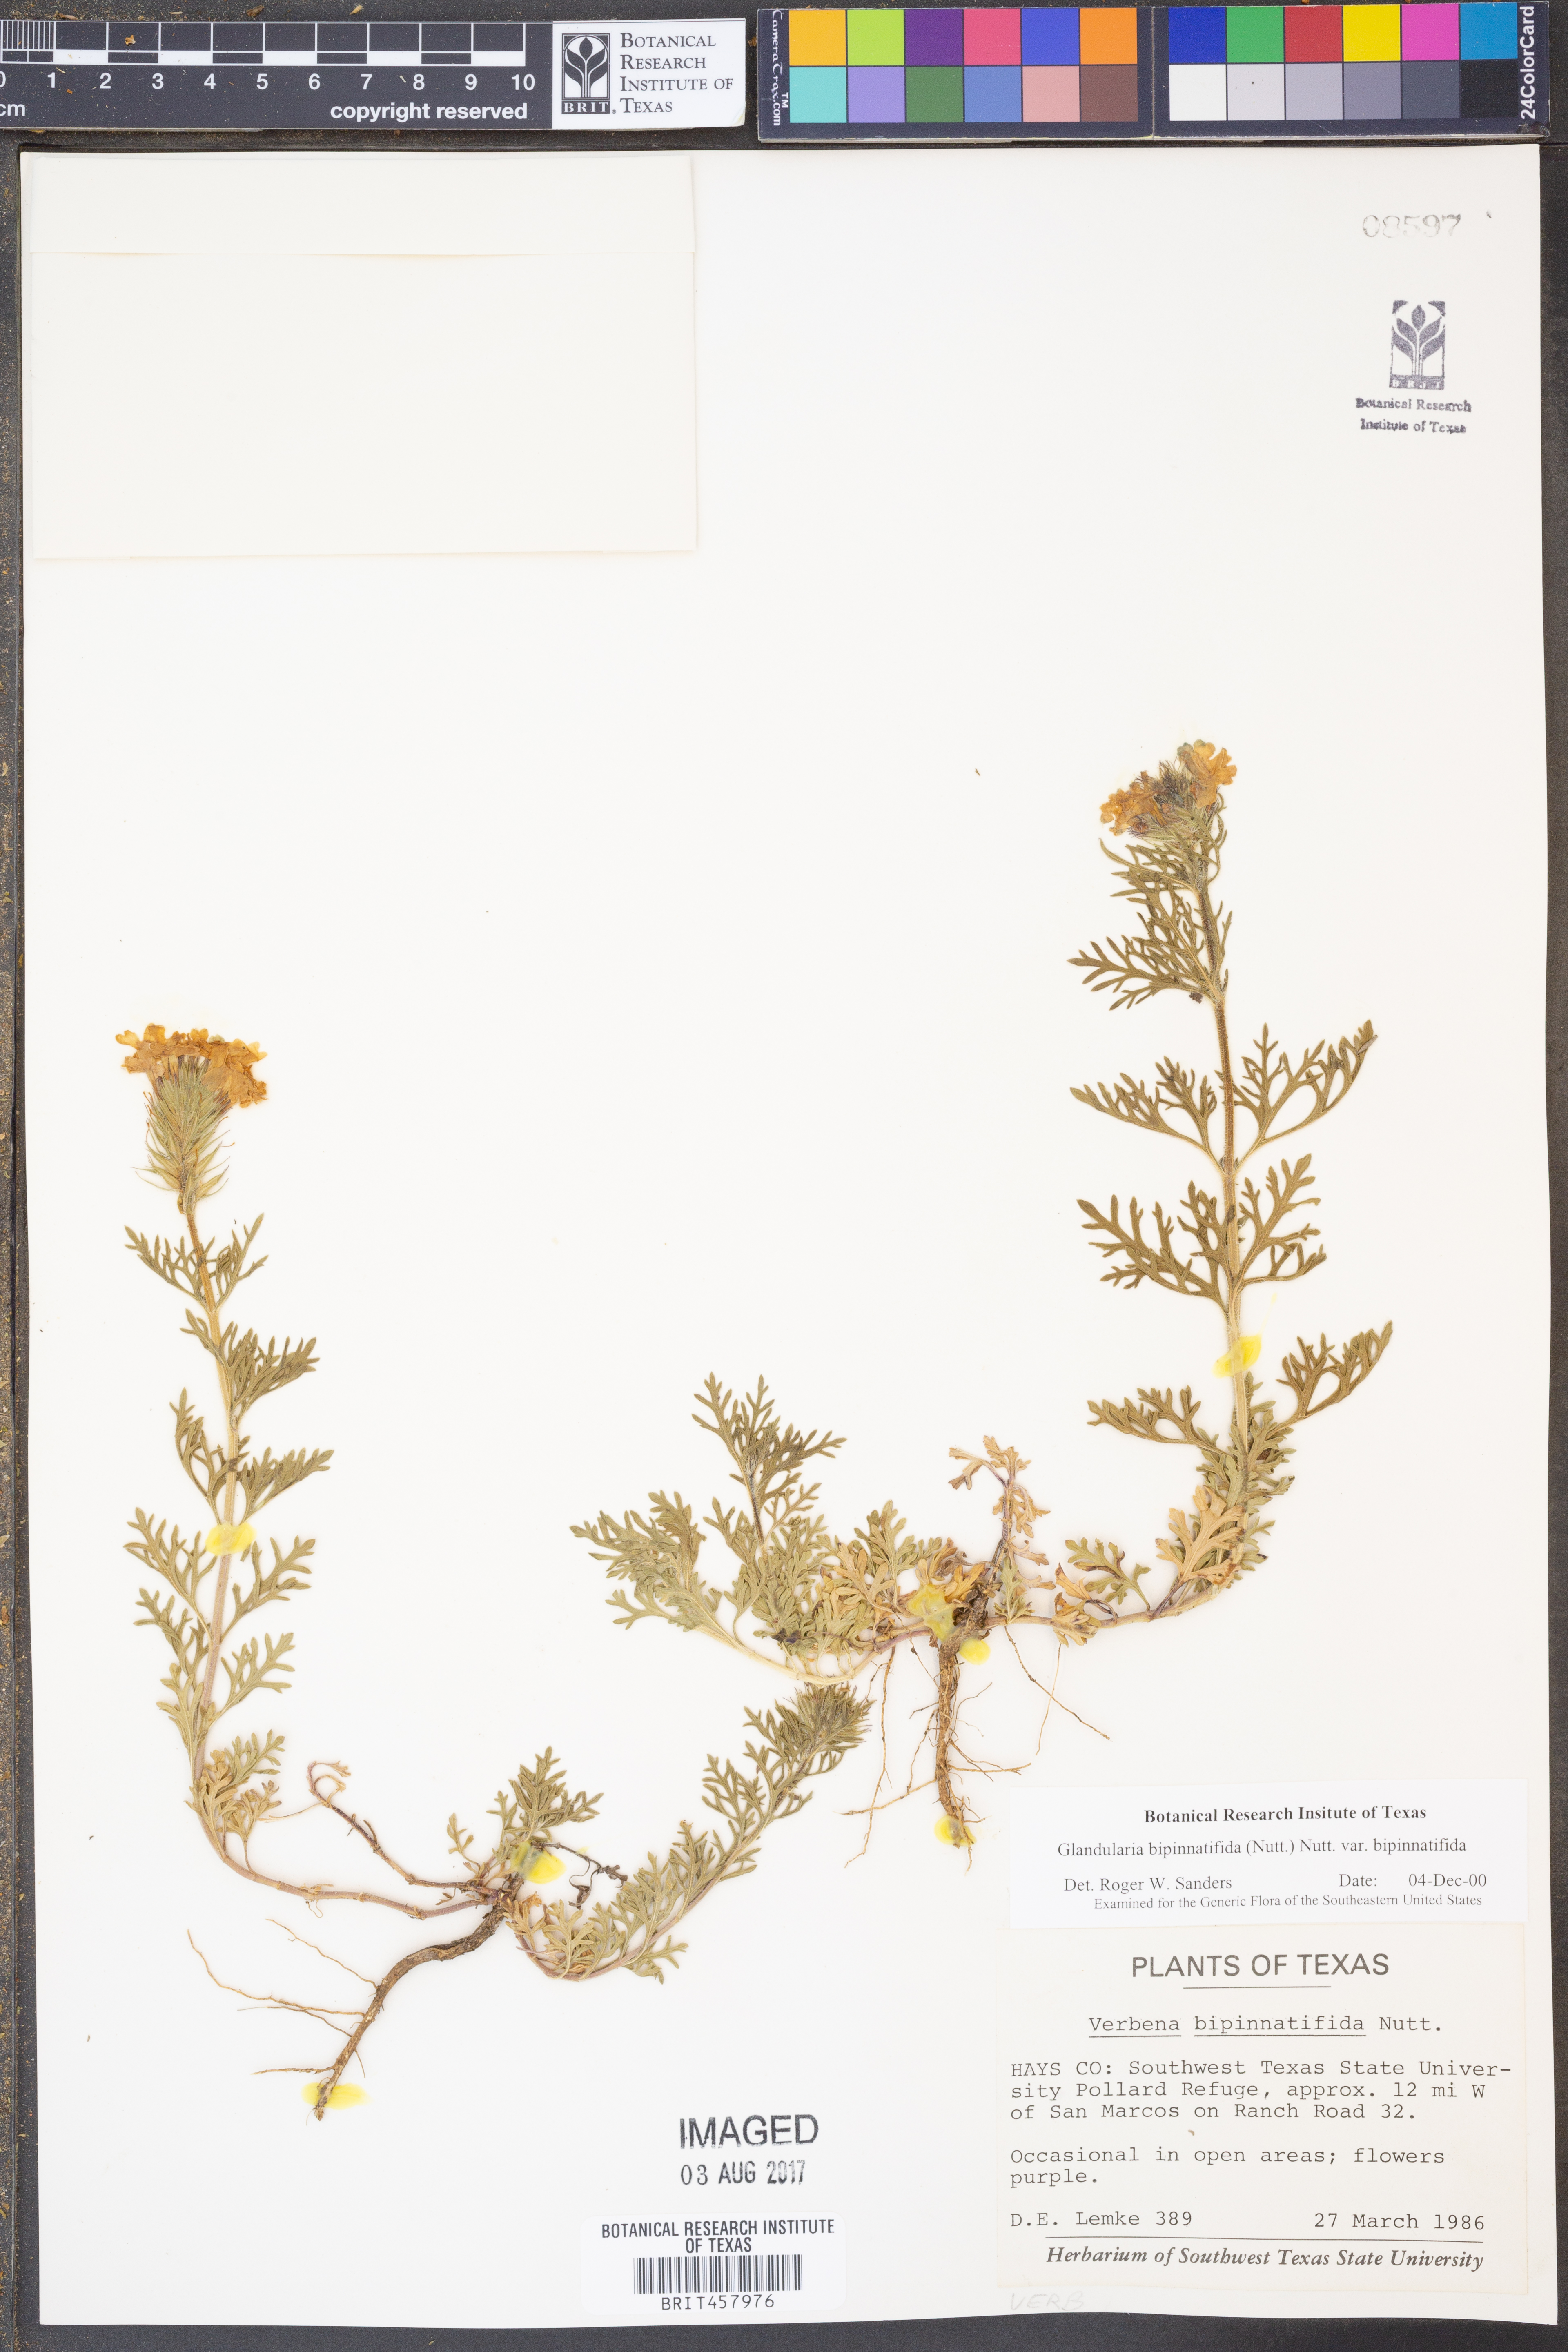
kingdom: Plantae
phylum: Tracheophyta
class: Magnoliopsida
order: Lamiales
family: Verbenaceae
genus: Verbena
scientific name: Verbena bipinnatifida
